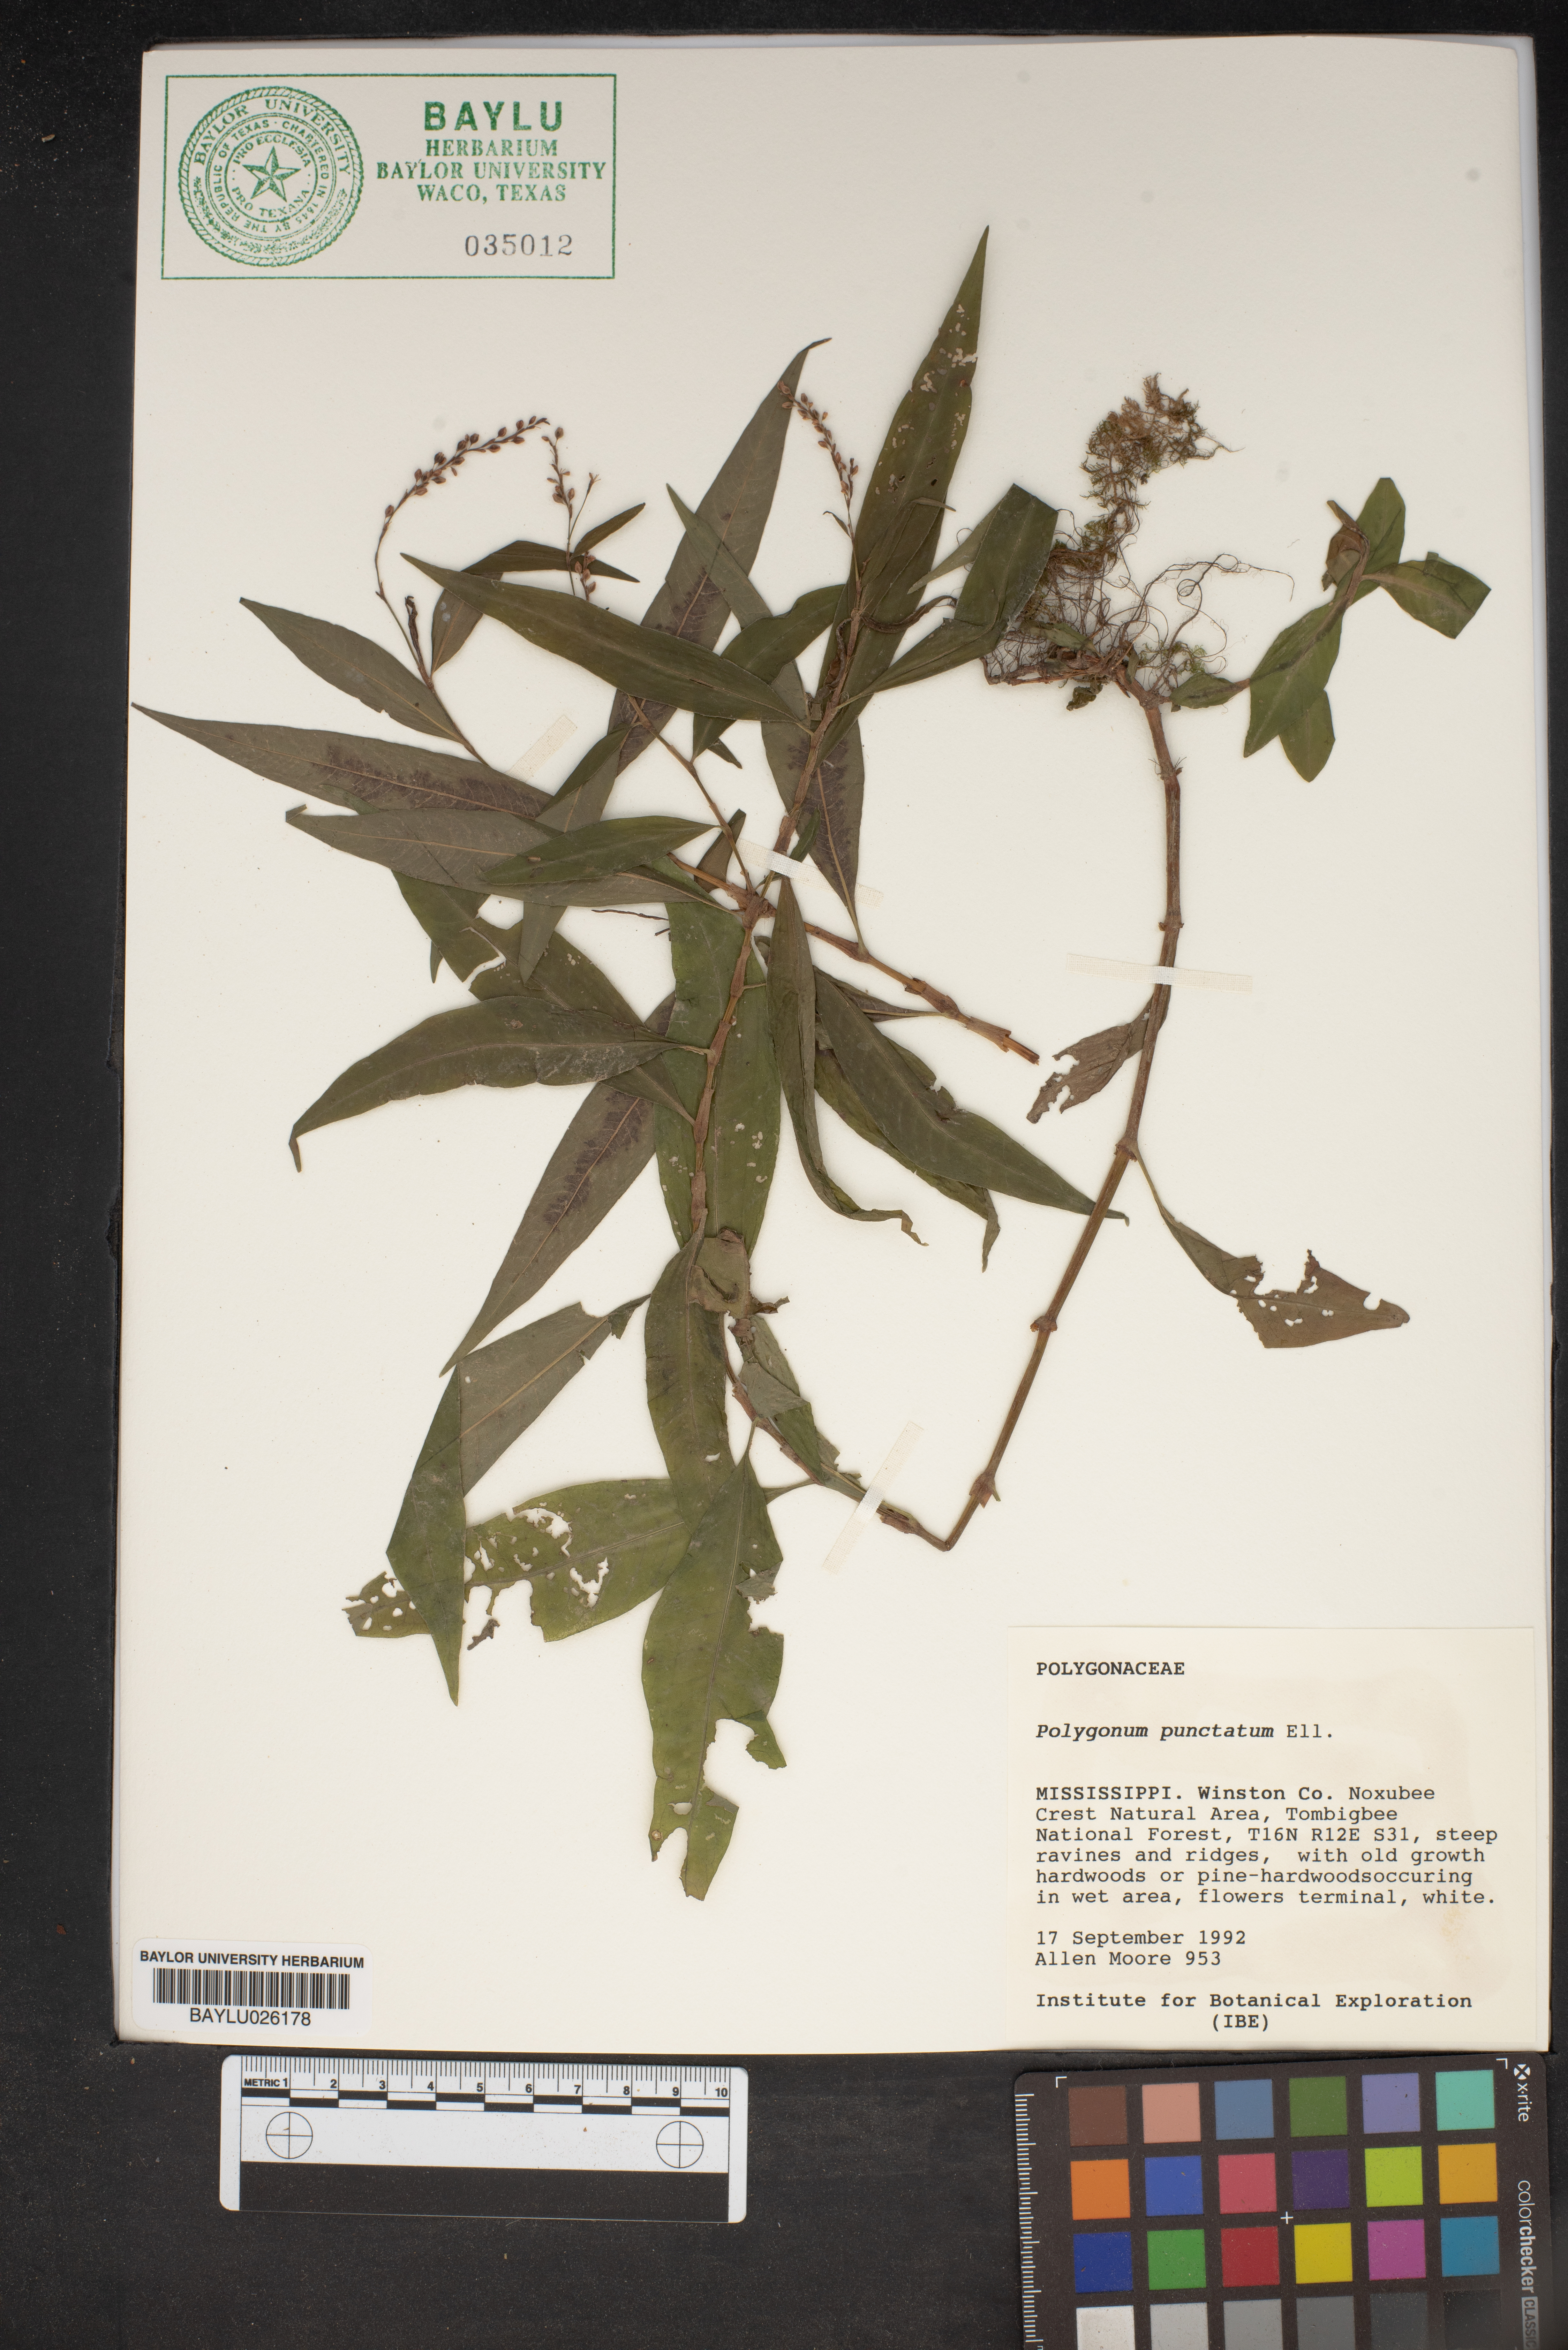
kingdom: Plantae
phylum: Tracheophyta
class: Magnoliopsida
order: Caryophyllales
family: Polygonaceae
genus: Persicaria
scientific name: Persicaria punctata
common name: Dotted smartweed
